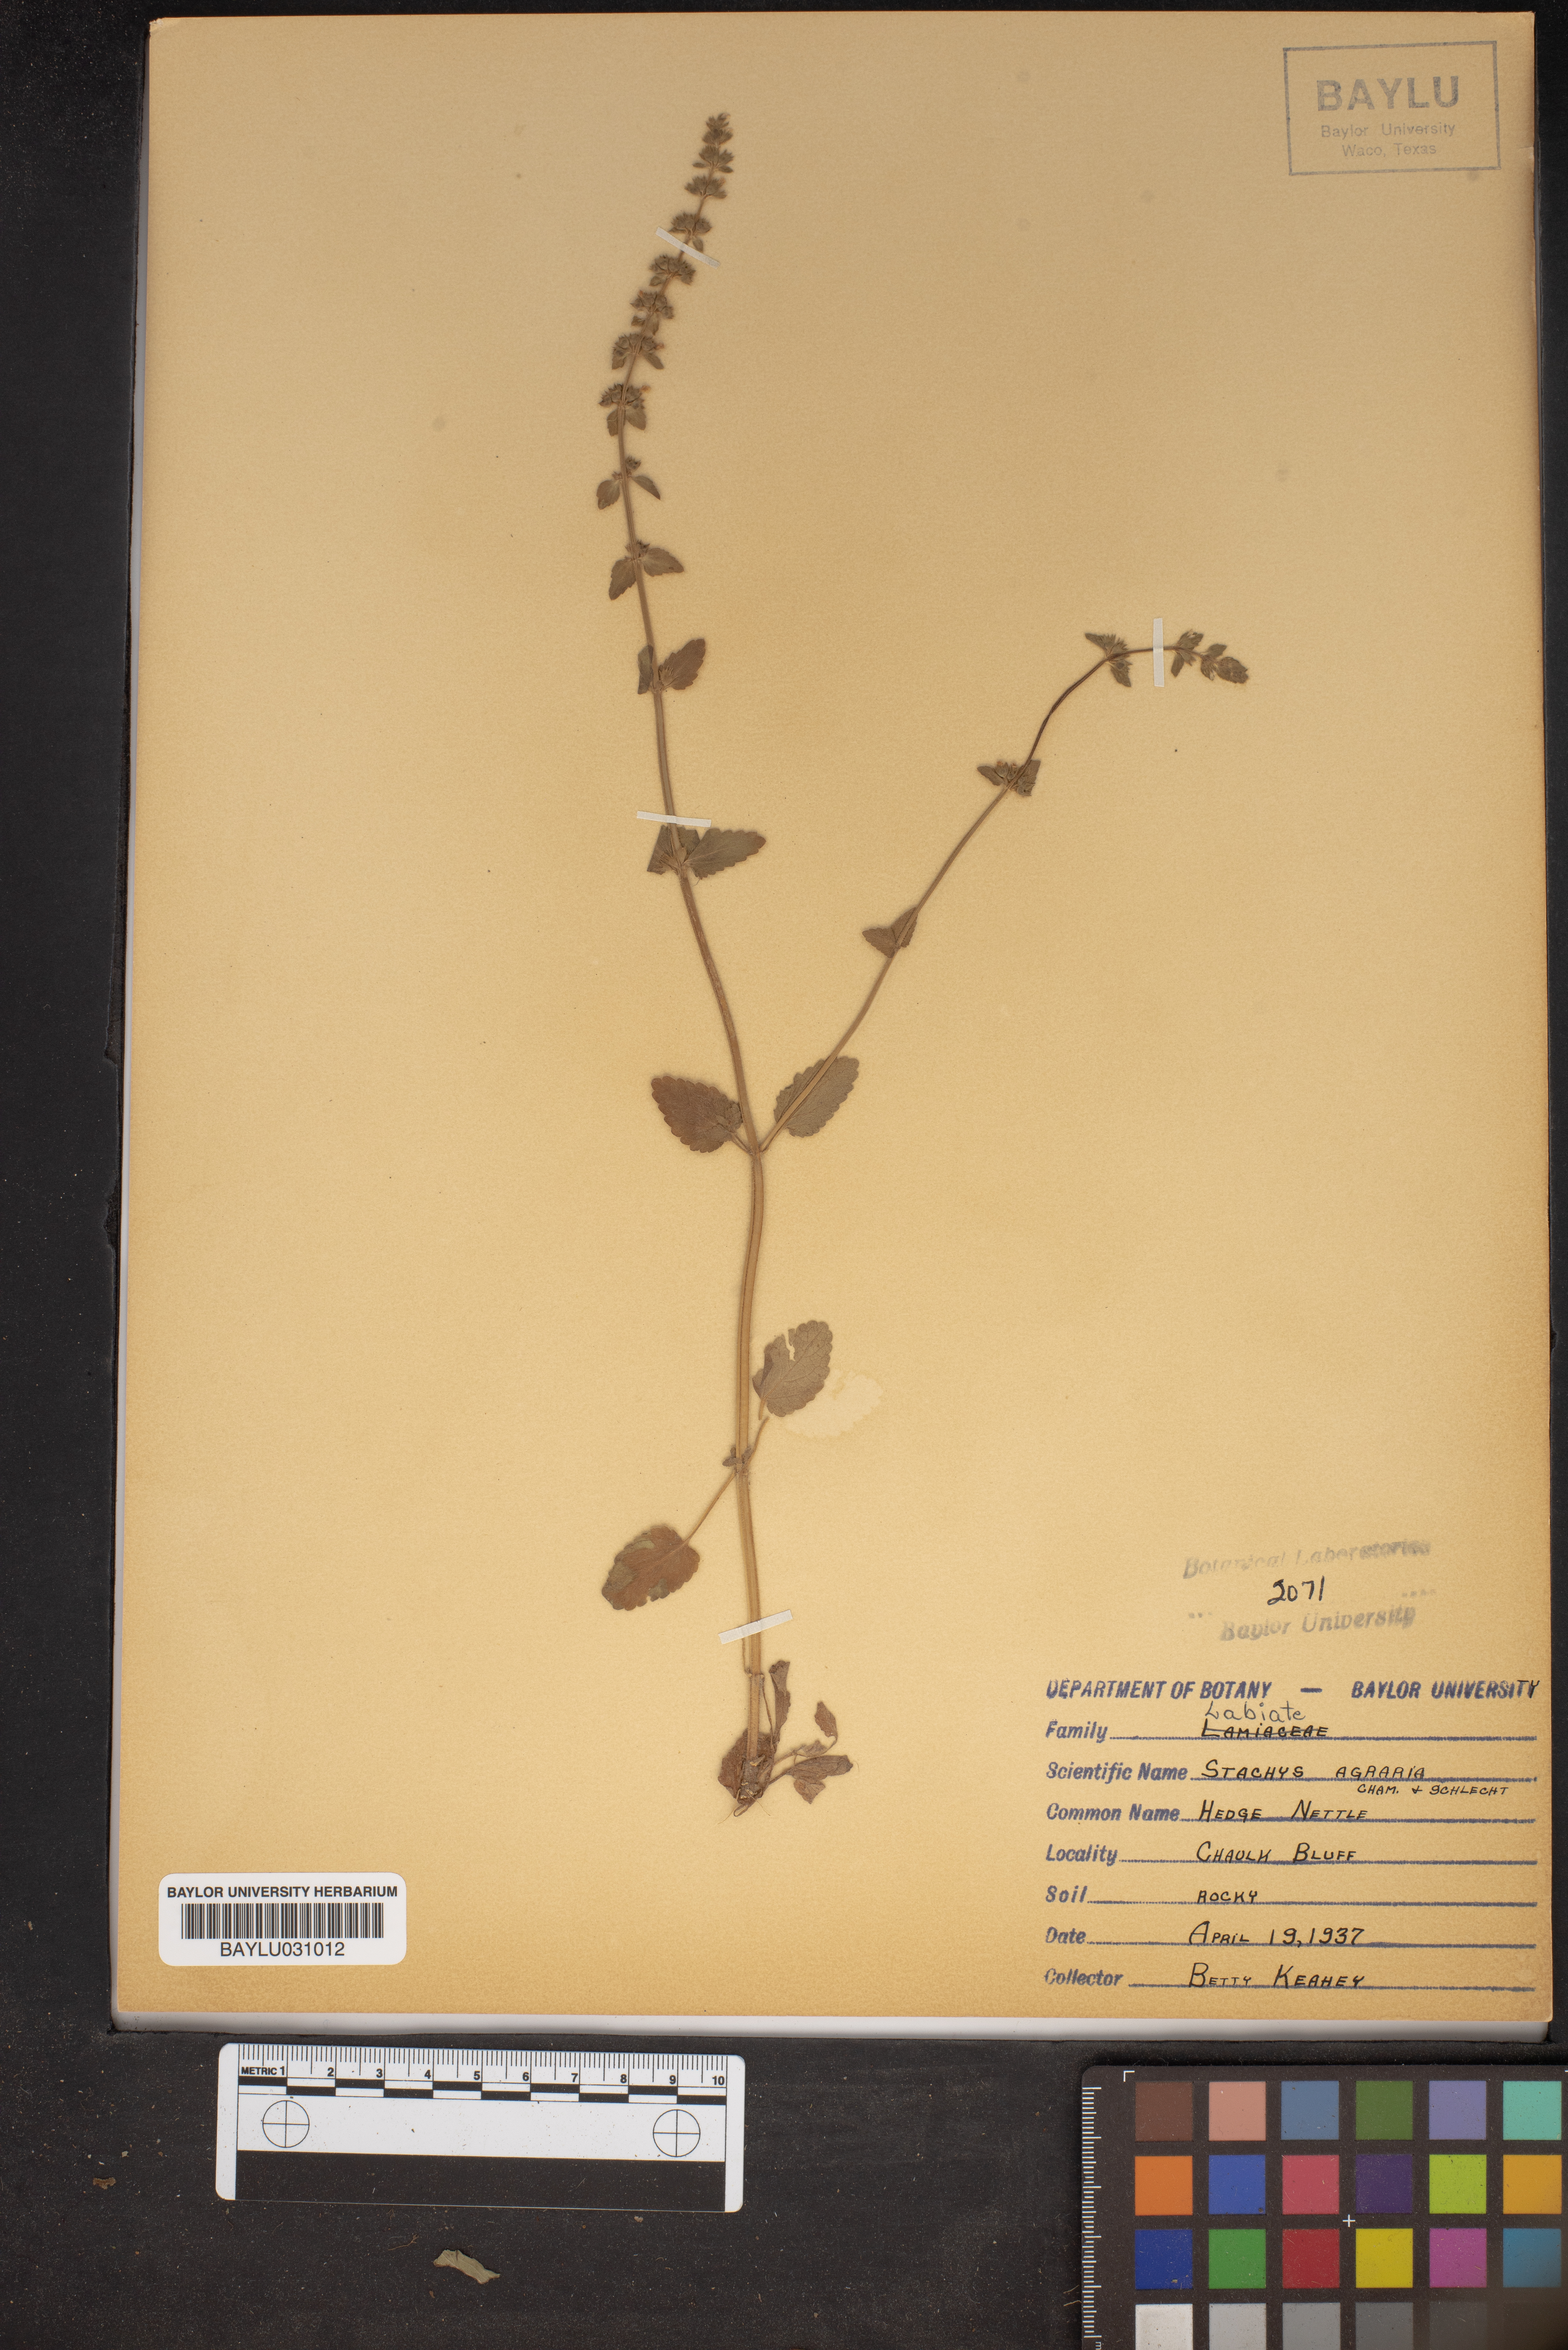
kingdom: Plantae
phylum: Tracheophyta
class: Magnoliopsida
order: Lamiales
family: Lamiaceae
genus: Stachys
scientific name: Stachys agraria
